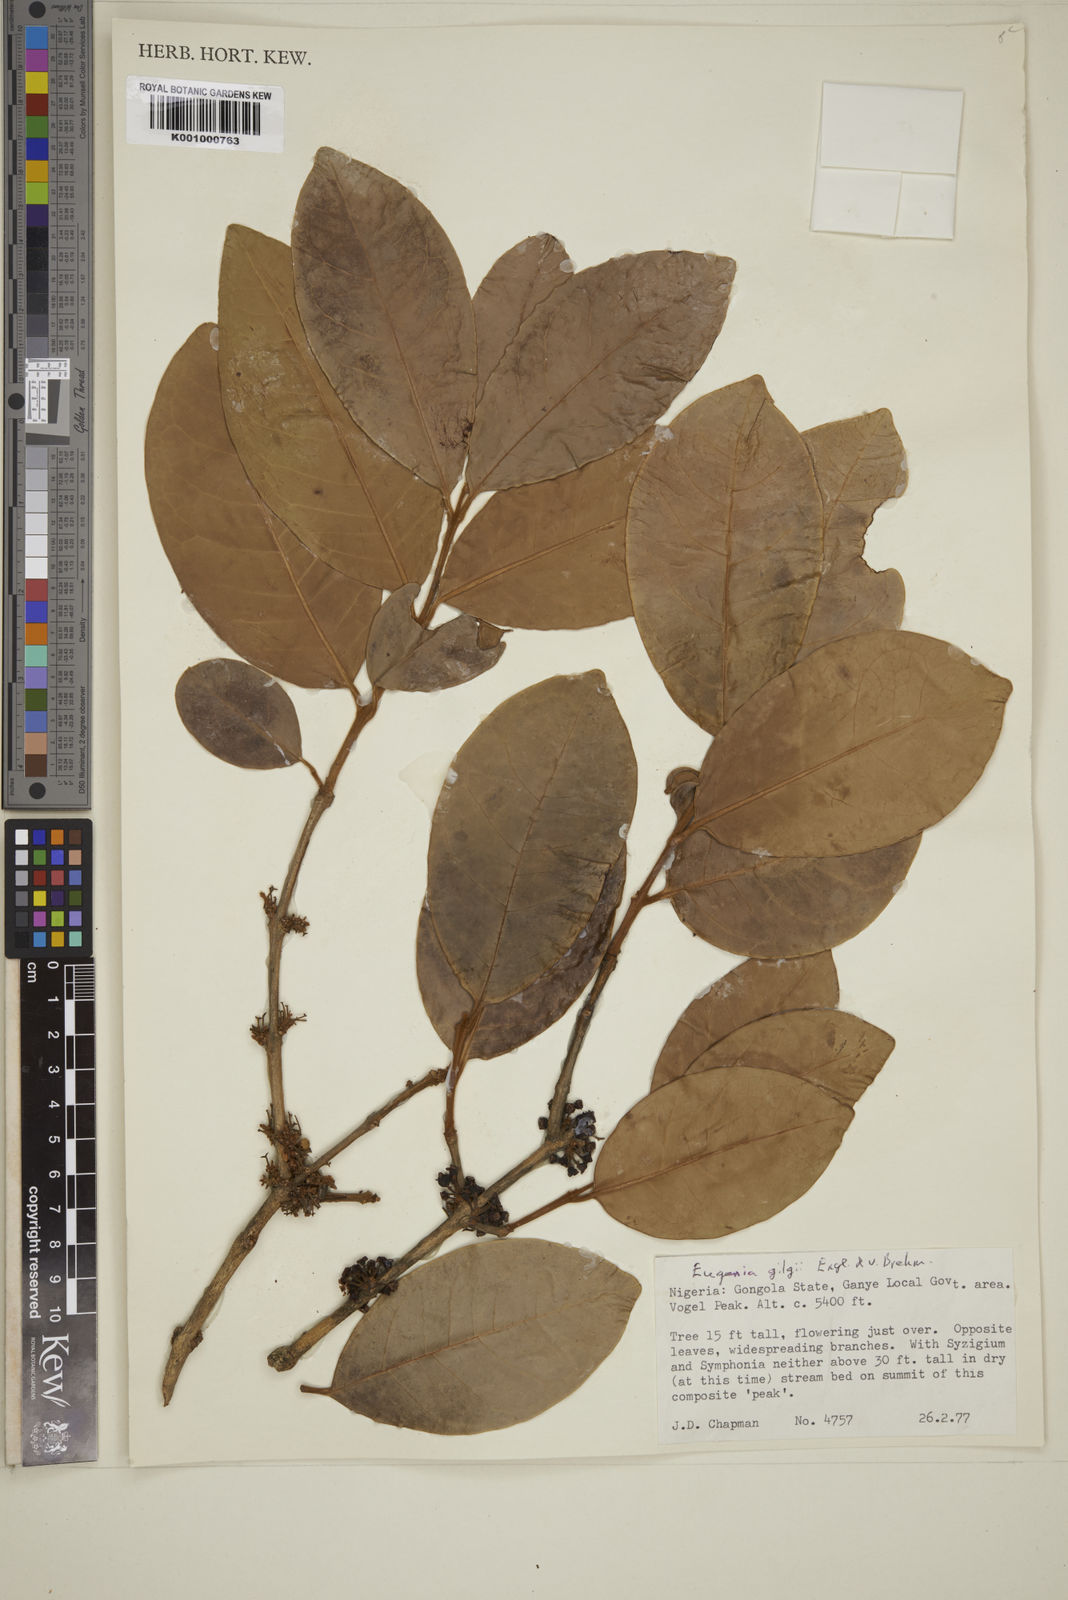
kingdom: Plantae
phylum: Tracheophyta
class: Magnoliopsida
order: Myrtales
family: Myrtaceae
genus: Eugenia
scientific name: Eugenia gilgii
